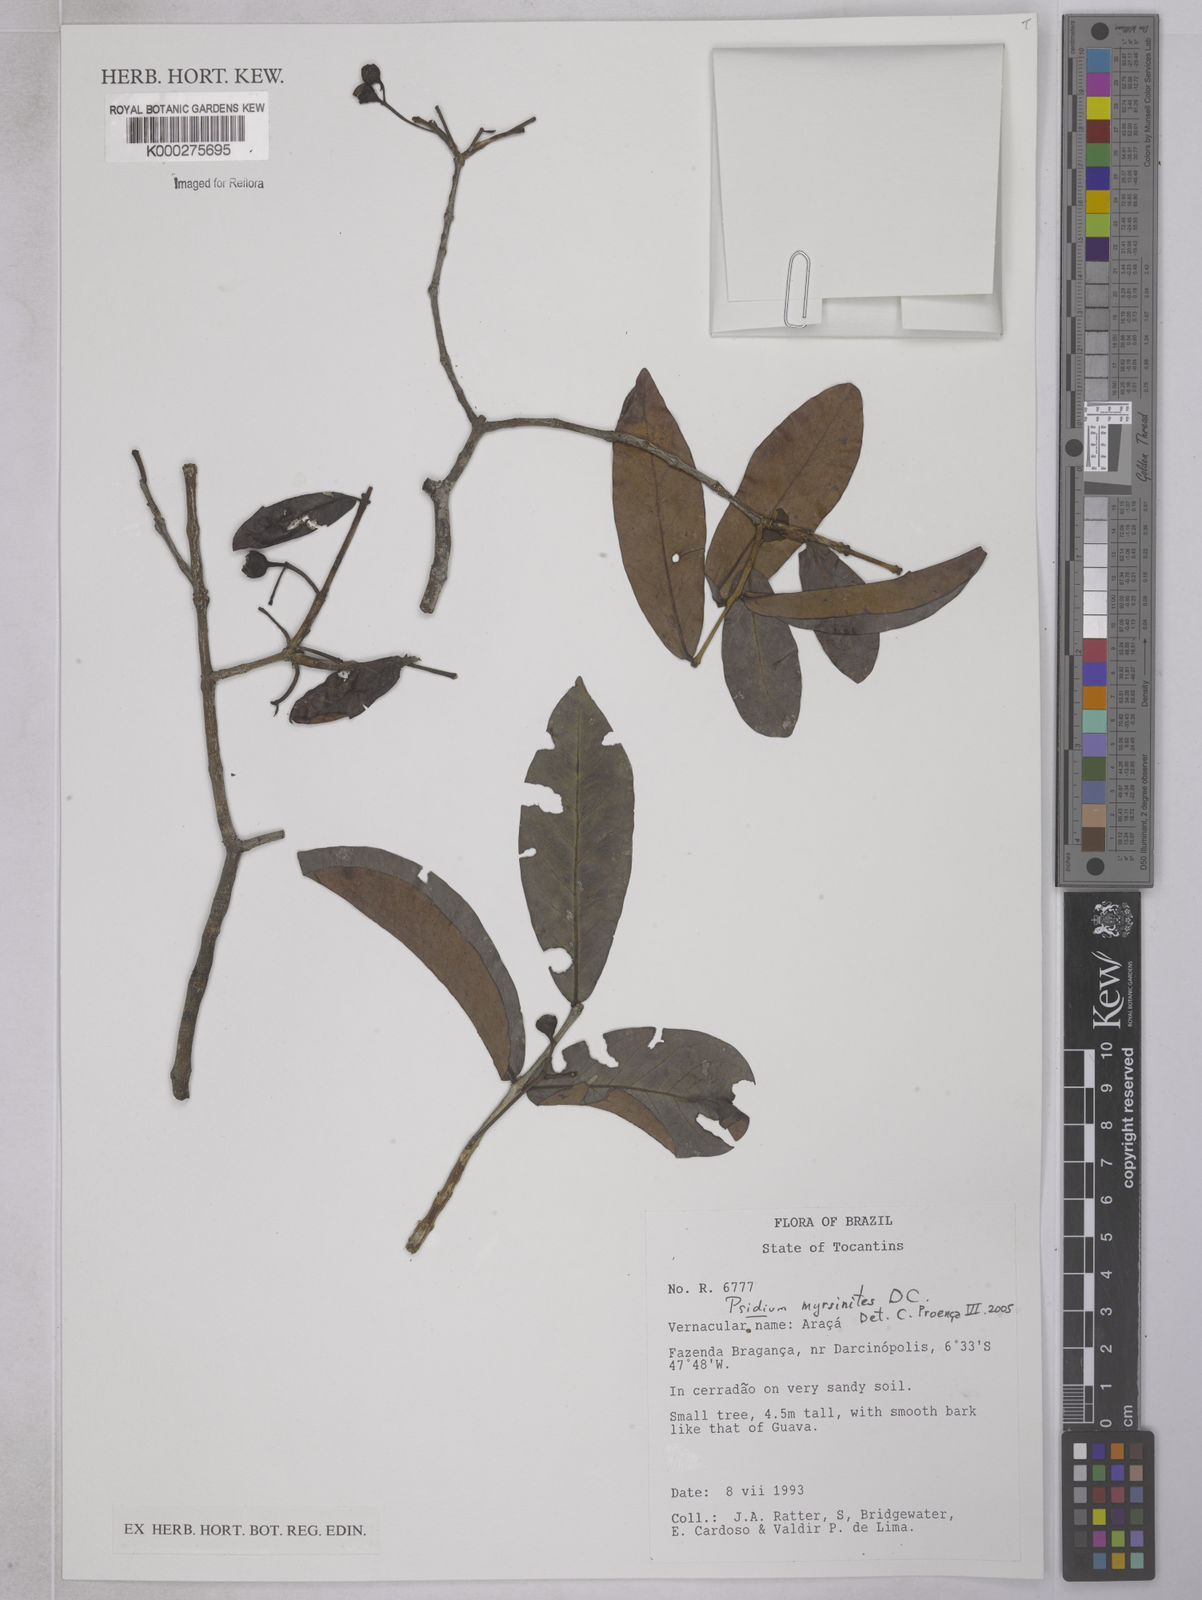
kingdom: Plantae
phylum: Tracheophyta
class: Magnoliopsida
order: Myrtales
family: Myrtaceae
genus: Psidium
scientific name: Psidium myrsinites
